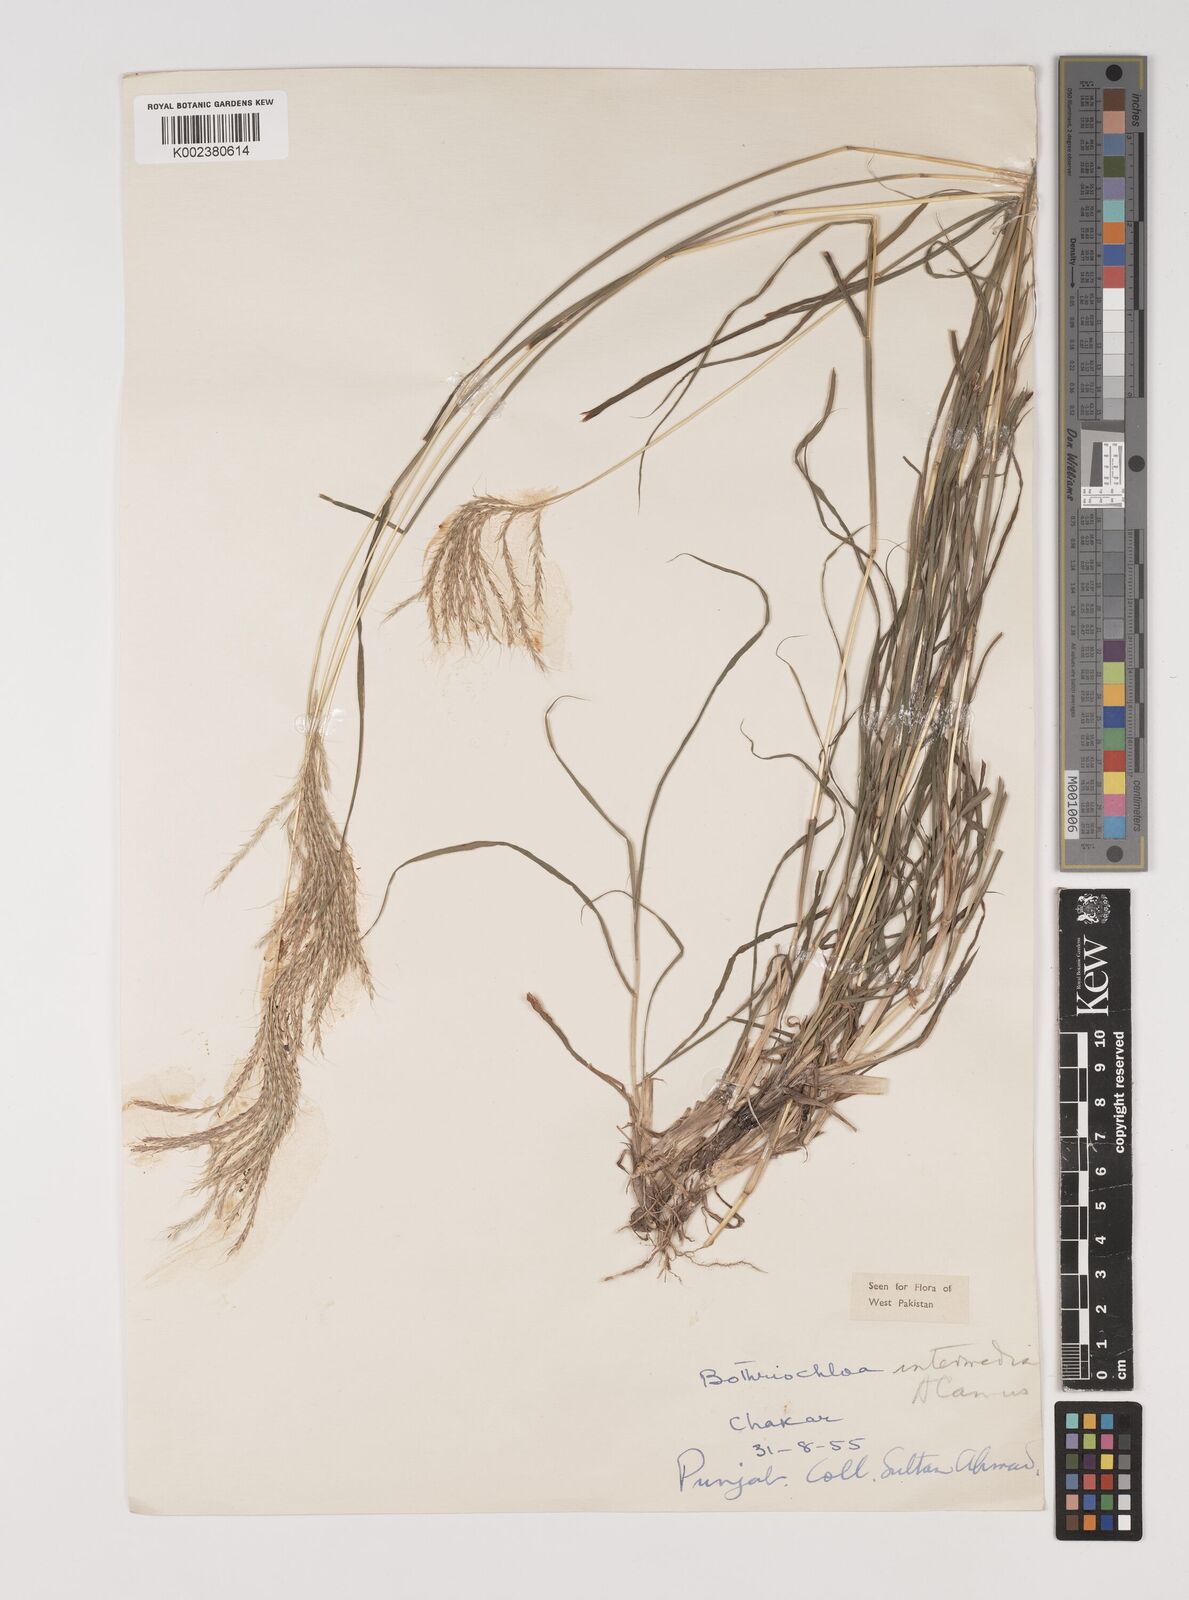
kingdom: Plantae
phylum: Tracheophyta
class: Liliopsida
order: Poales
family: Poaceae
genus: Bothriochloa
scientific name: Bothriochloa bladhii
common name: Caucasian bluestem
